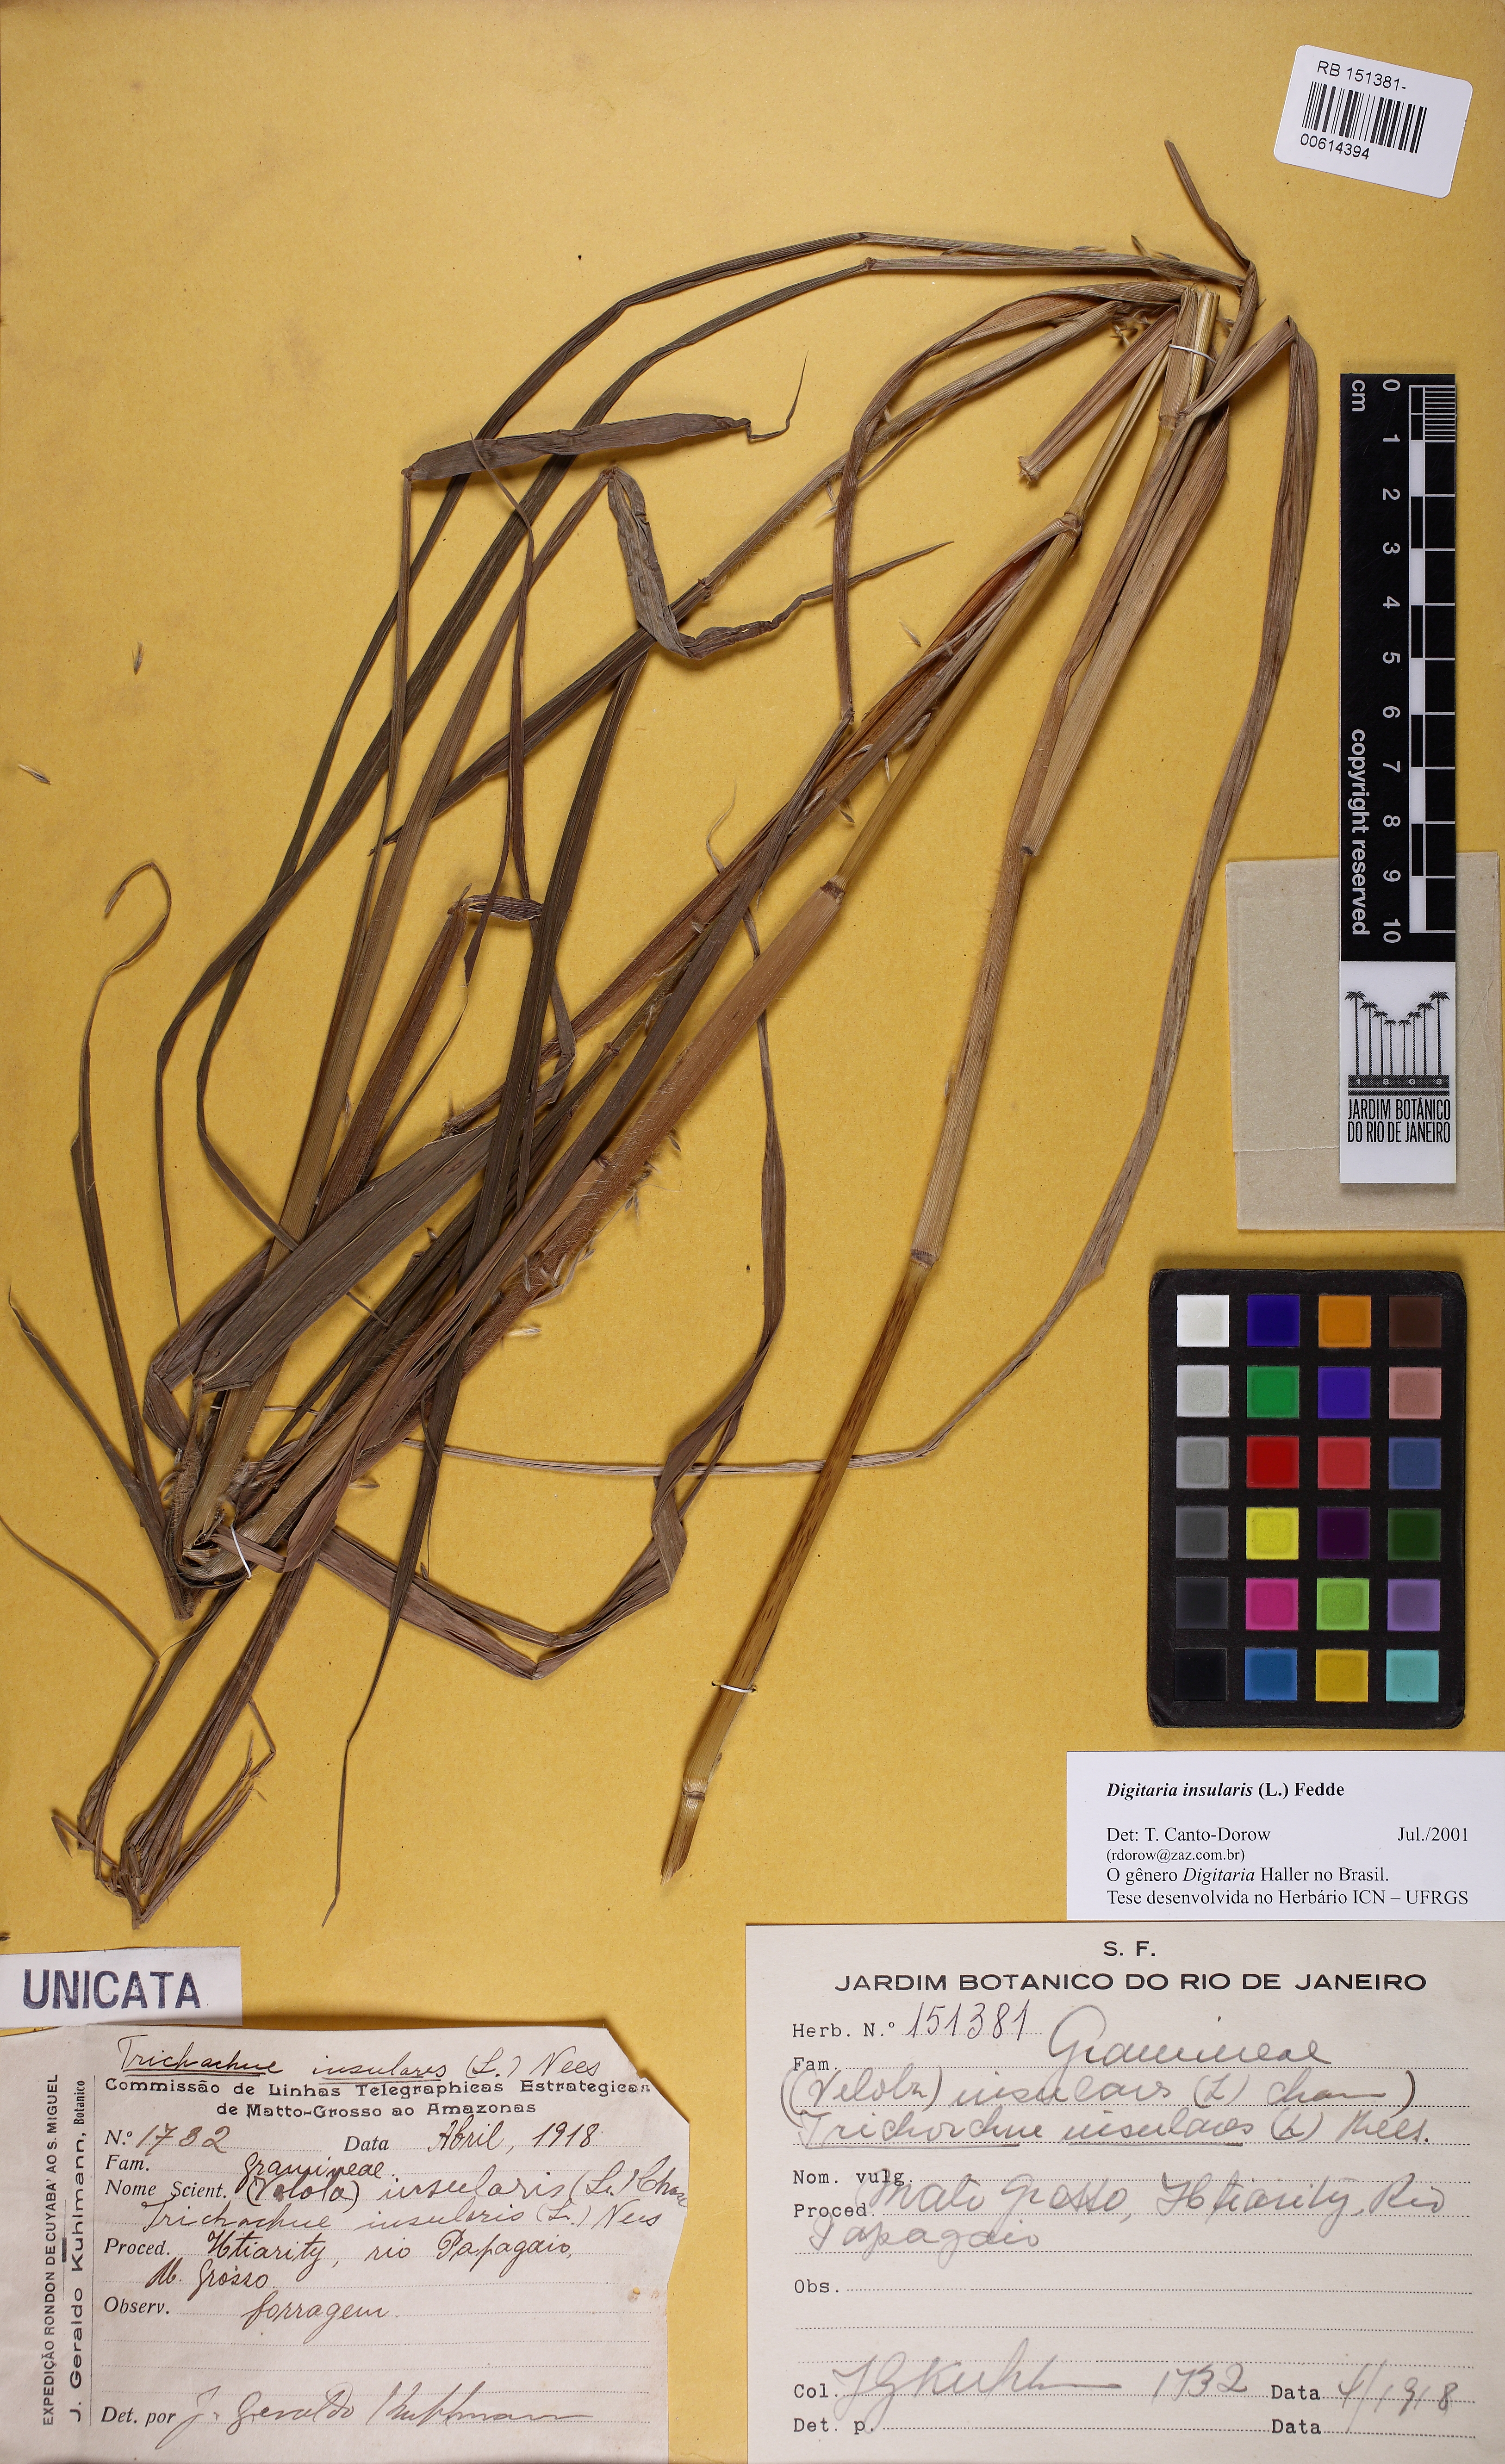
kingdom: Plantae
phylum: Tracheophyta
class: Liliopsida
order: Poales
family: Poaceae
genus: Digitaria
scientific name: Digitaria insularis
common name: Sourgrass
